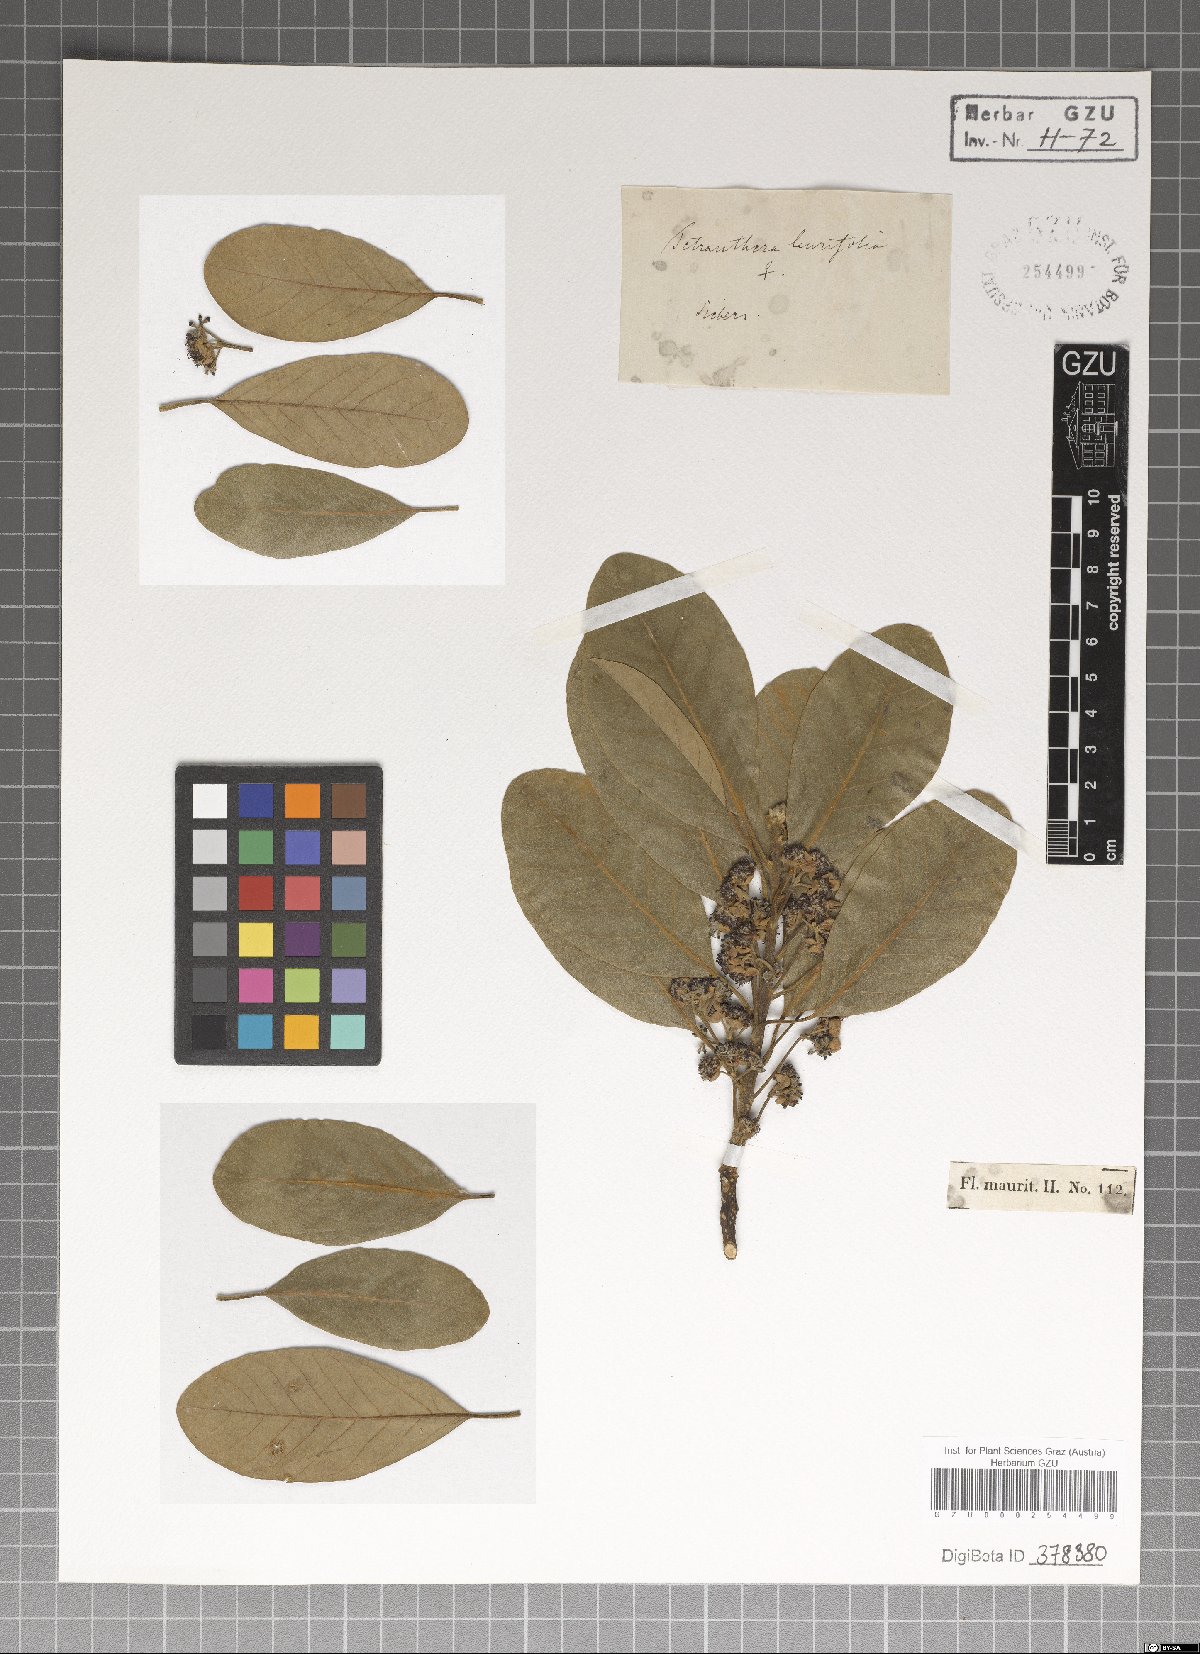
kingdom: Plantae
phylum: Tracheophyta
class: Magnoliopsida
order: Laurales
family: Lauraceae
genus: Litsea
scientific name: Litsea glutinosa
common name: Indian-laurel
